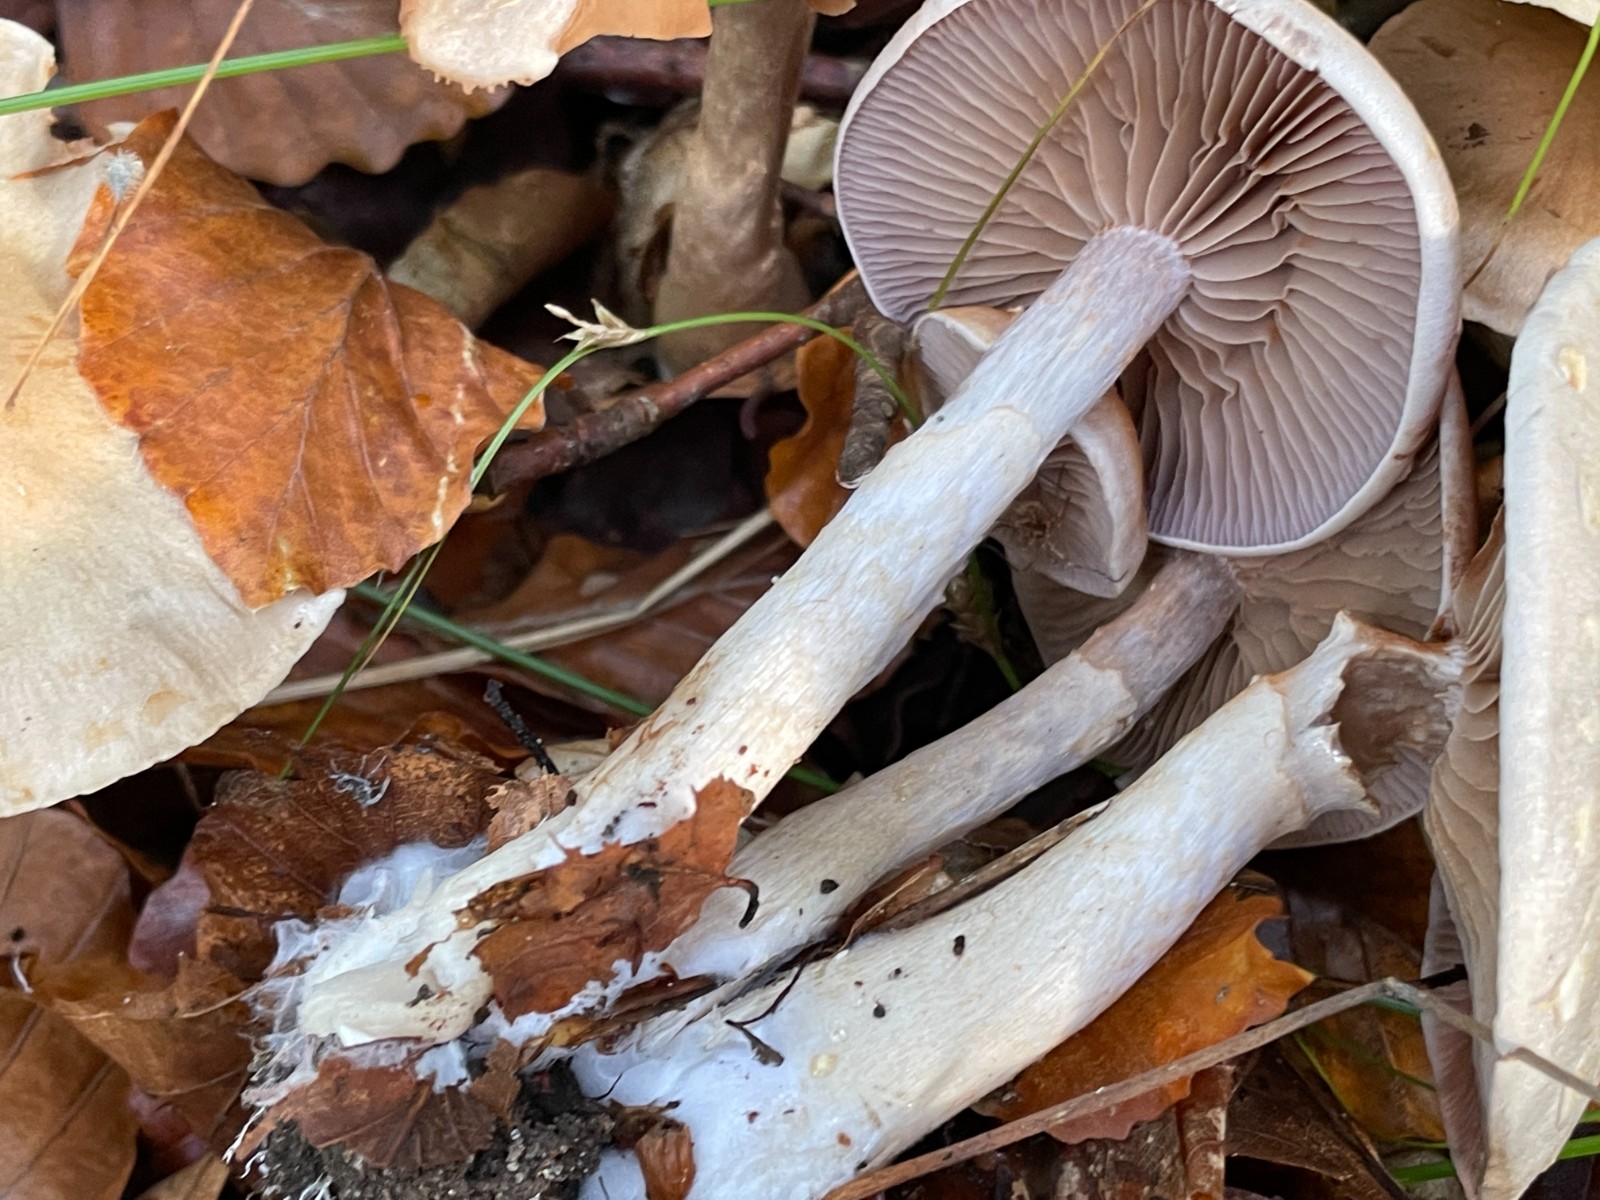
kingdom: Fungi
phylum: Basidiomycota
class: Agaricomycetes
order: Agaricales
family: Cortinariaceae
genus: Cortinarius
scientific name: Cortinarius
